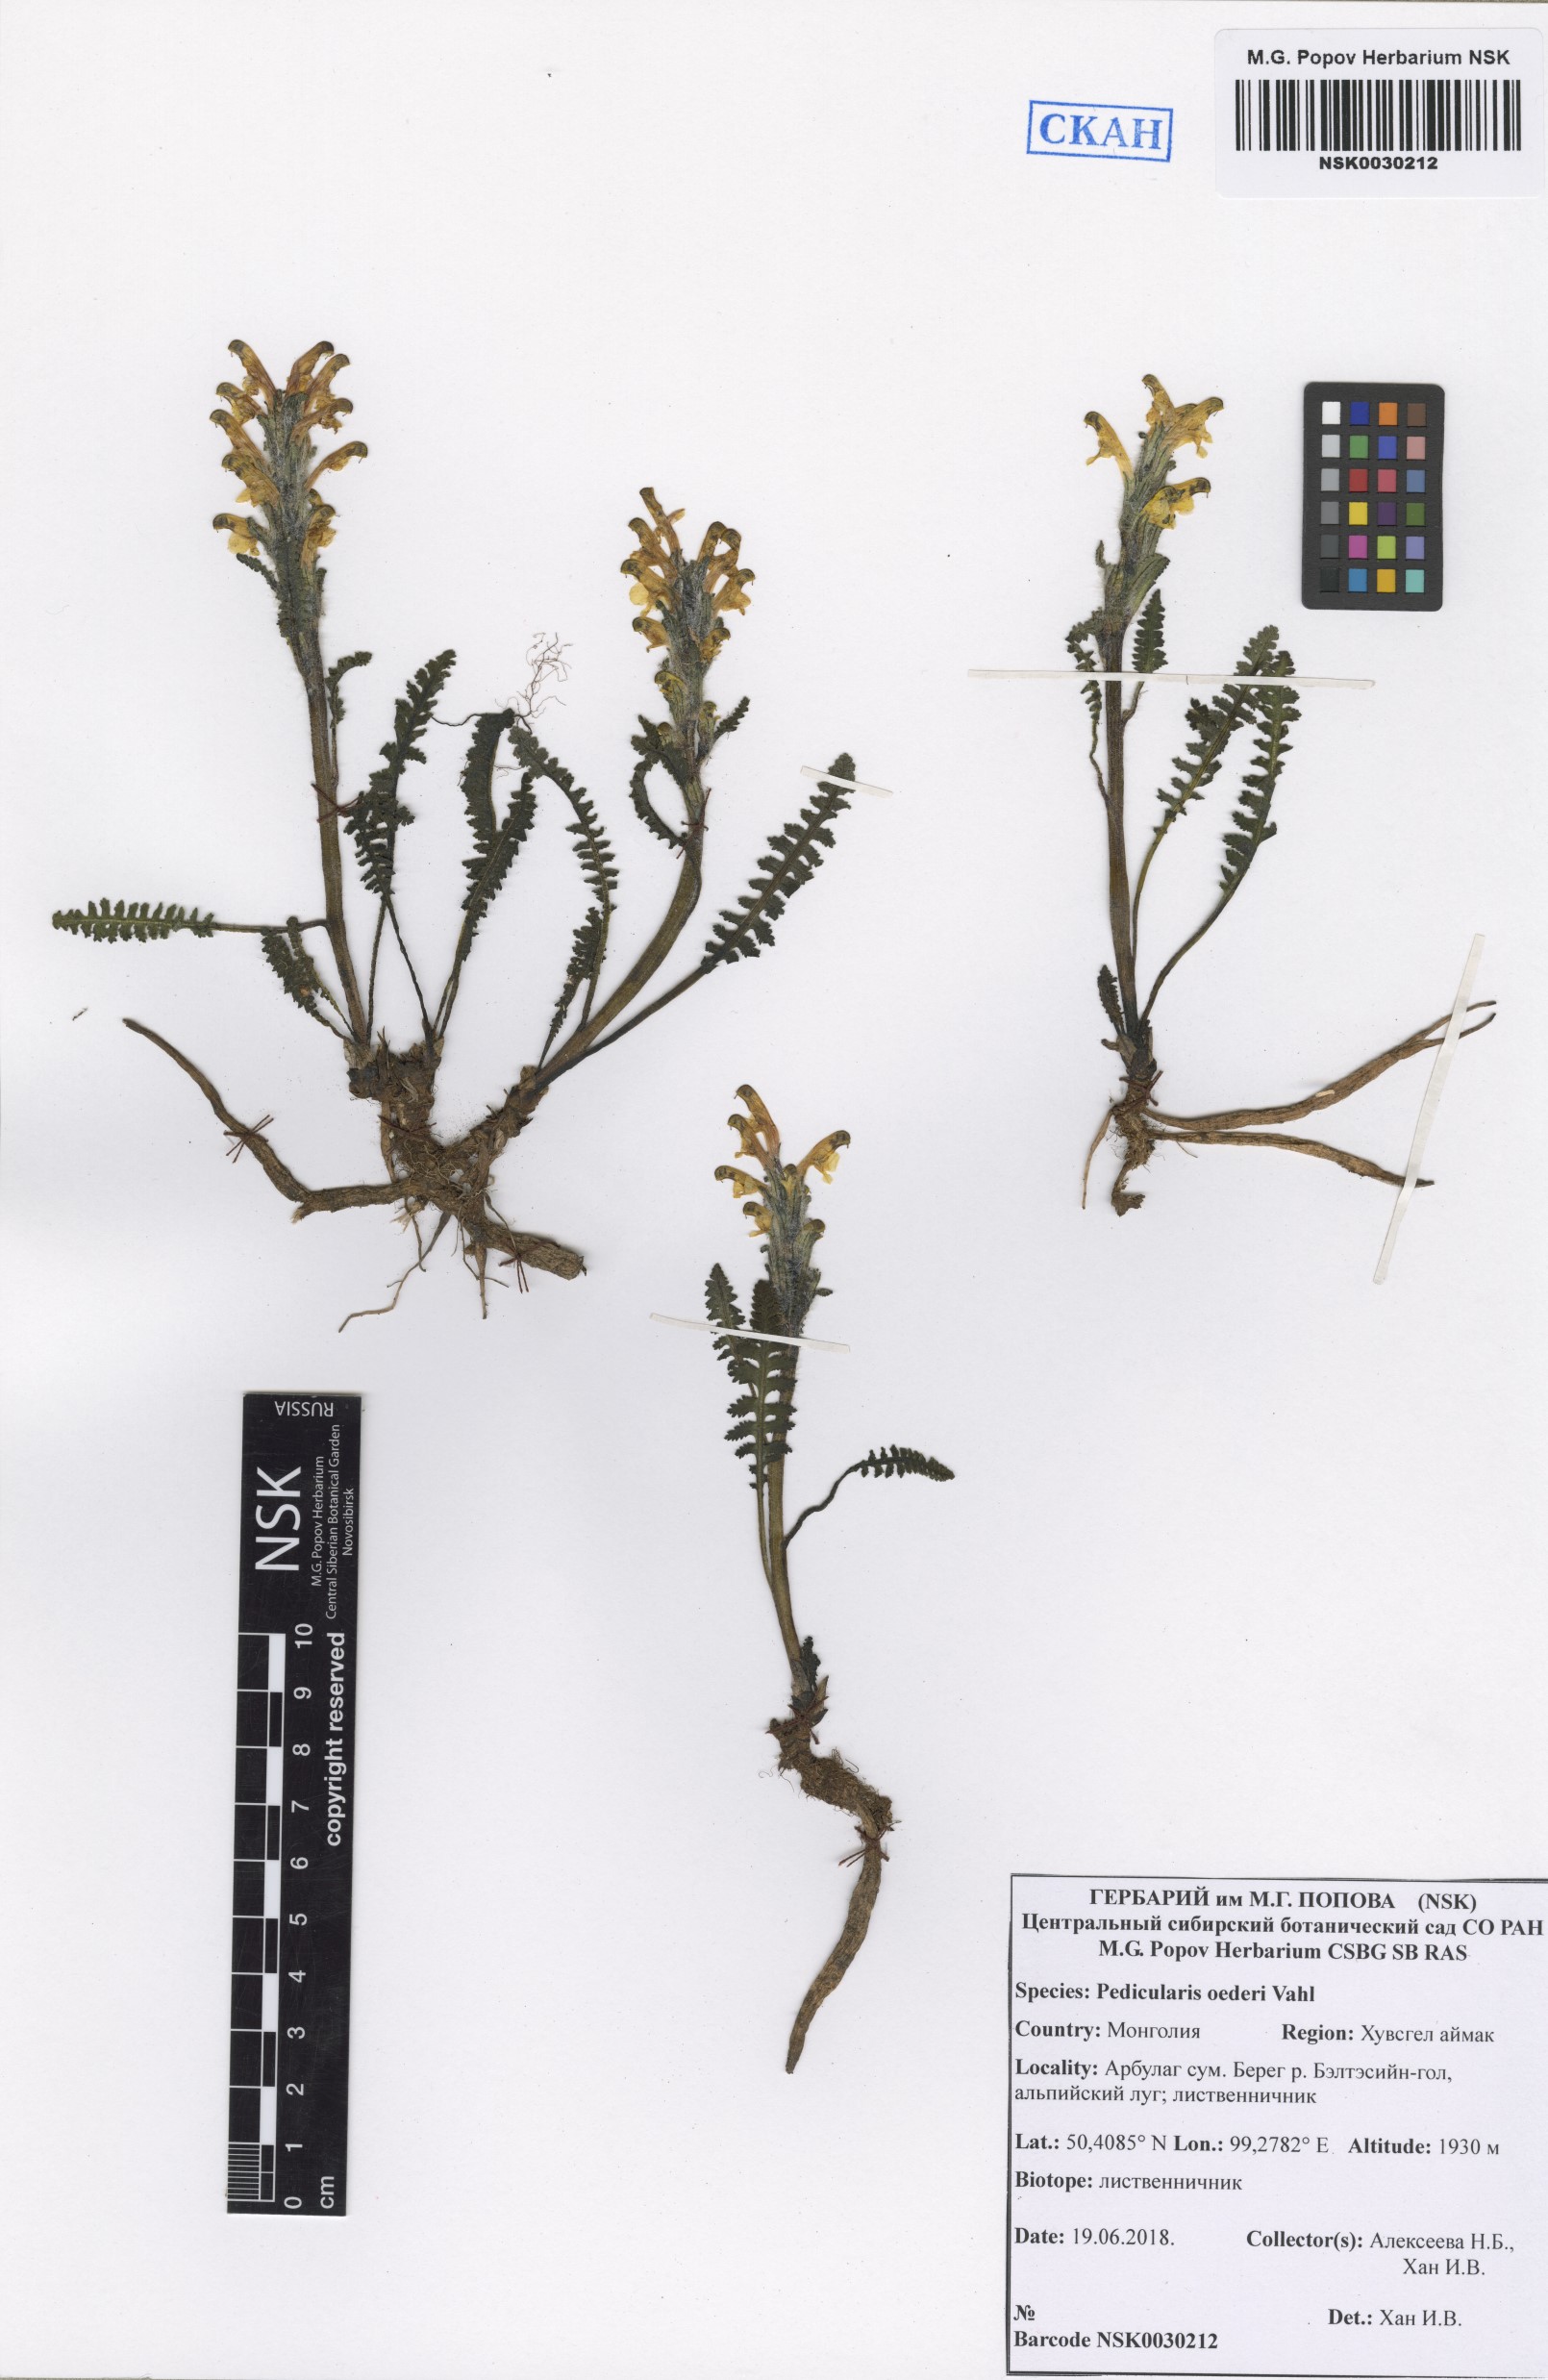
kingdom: Plantae
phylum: Tracheophyta
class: Magnoliopsida
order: Lamiales
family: Orobanchaceae
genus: Pedicularis
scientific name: Pedicularis oederi
